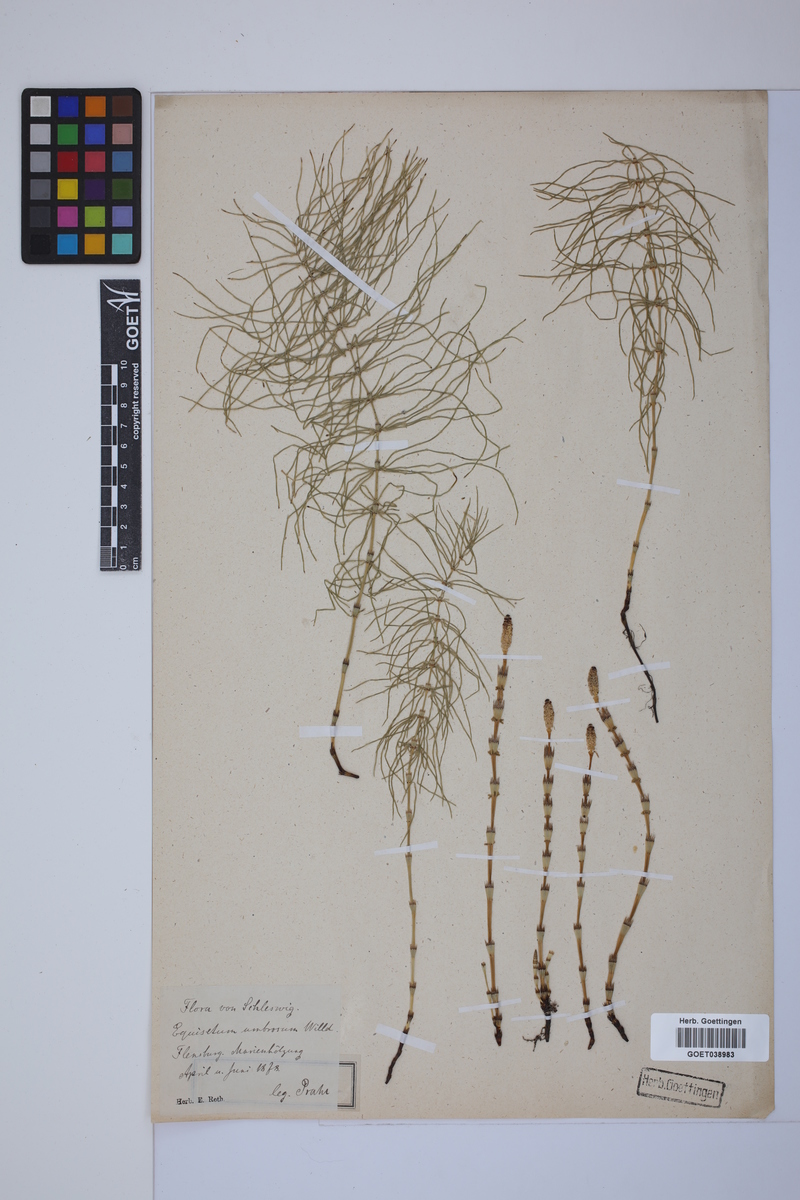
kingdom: Plantae
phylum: Tracheophyta
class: Polypodiopsida
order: Equisetales
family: Equisetaceae
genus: Equisetum
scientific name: Equisetum pratense
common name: Meadow horsetail
